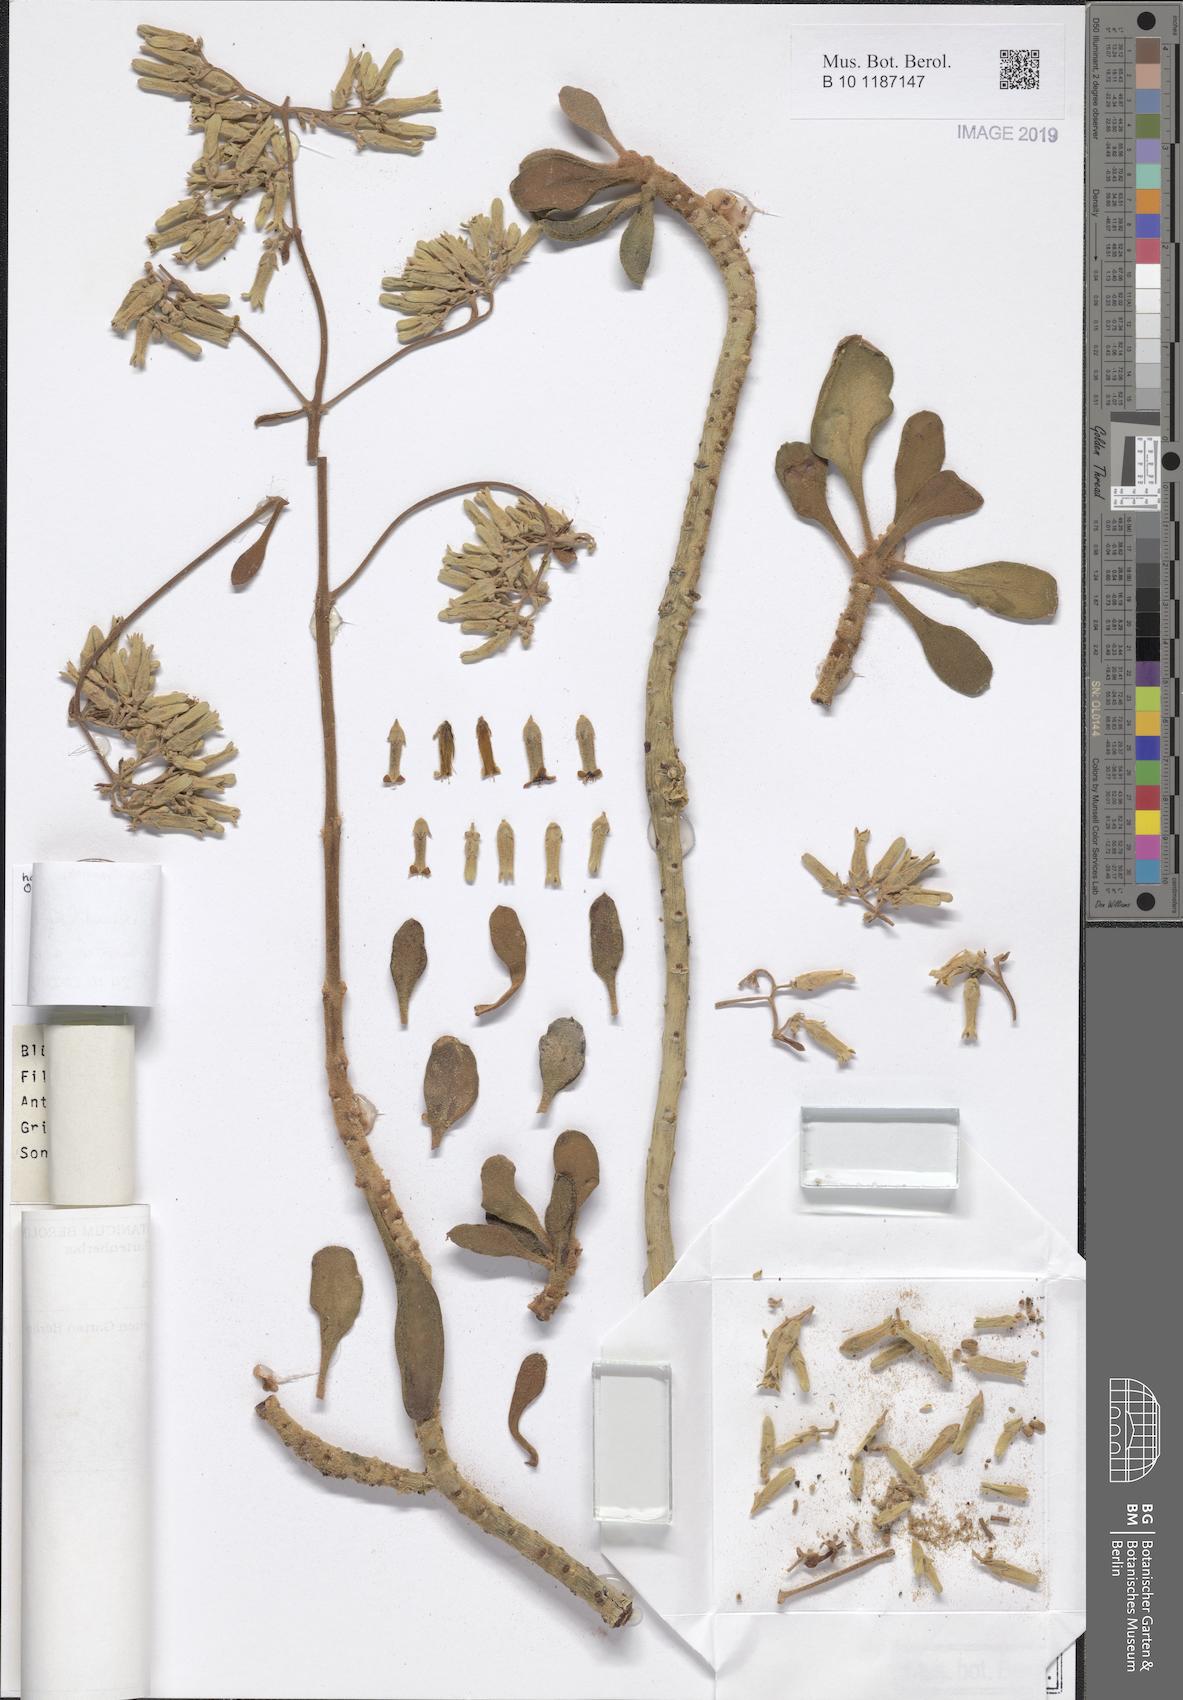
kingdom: Plantae
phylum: Tracheophyta
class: Magnoliopsida
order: Saxifragales
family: Crassulaceae
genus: Kalanchoe
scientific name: Kalanchoe dinklagei
